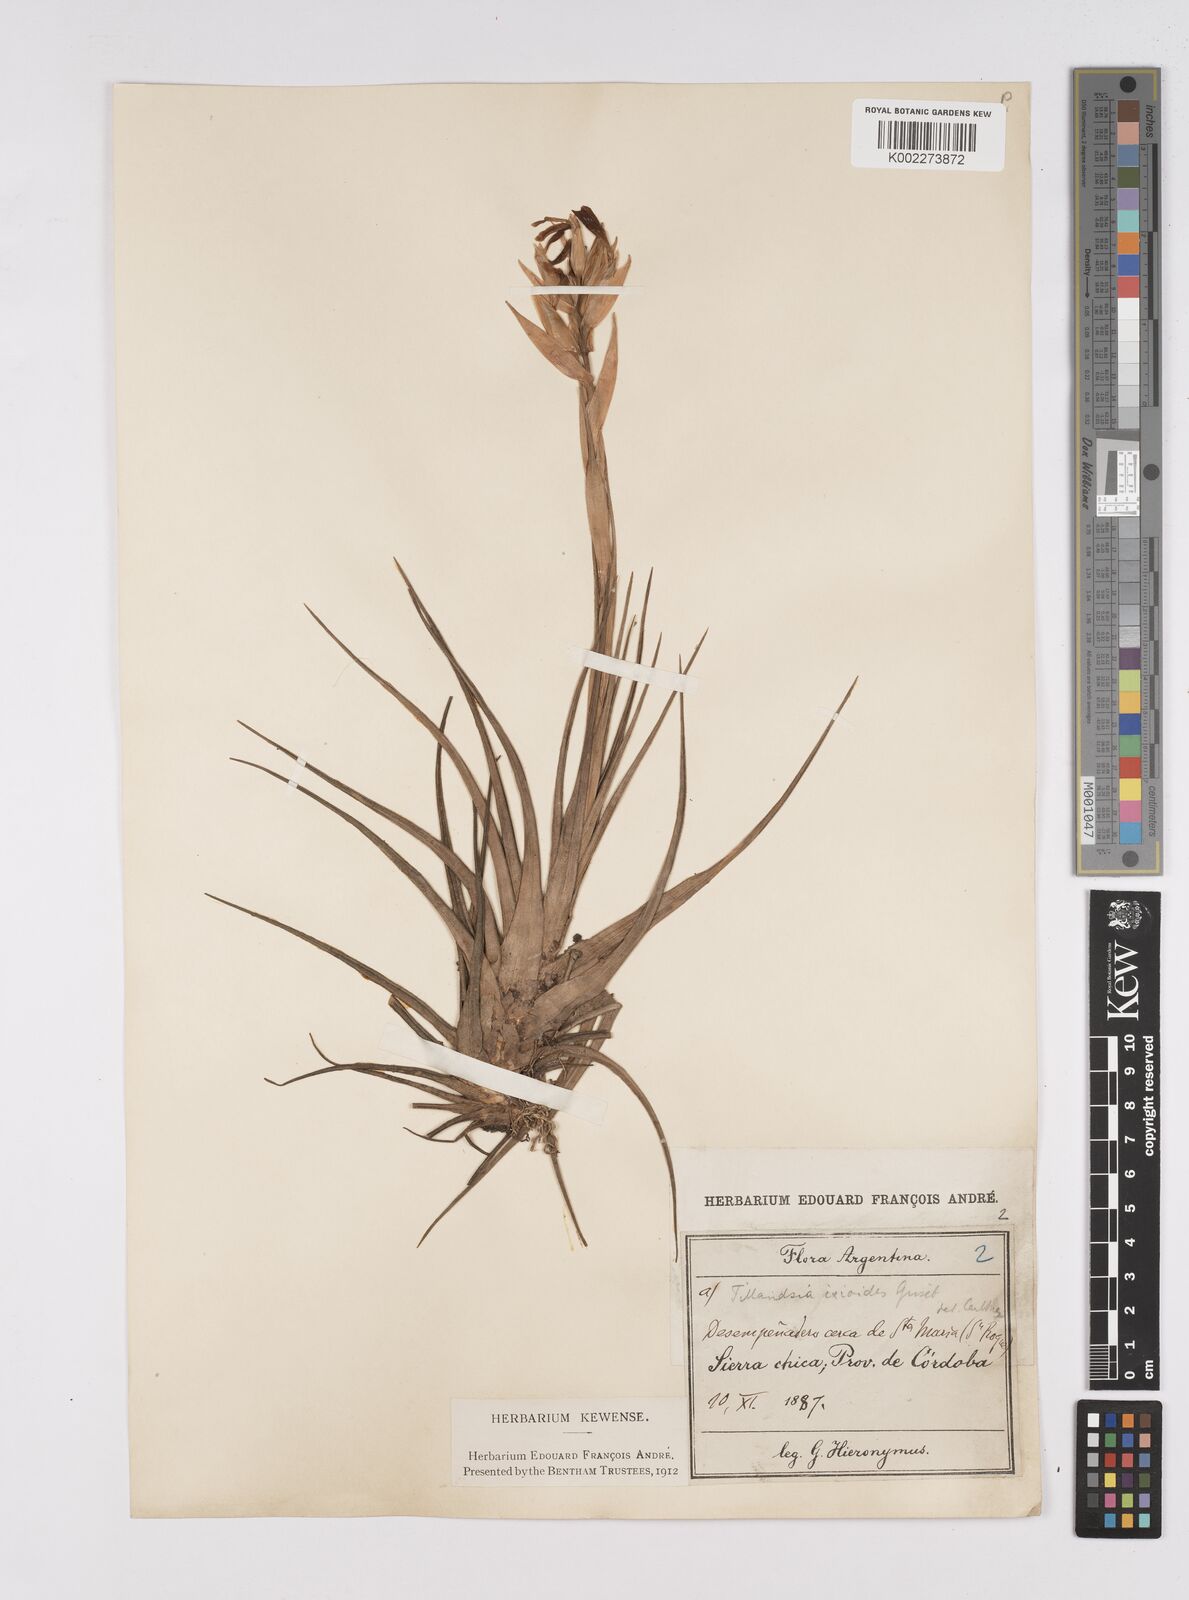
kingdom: Plantae
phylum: Tracheophyta
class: Liliopsida
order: Poales
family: Bromeliaceae
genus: Tillandsia
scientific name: Tillandsia ixioides
